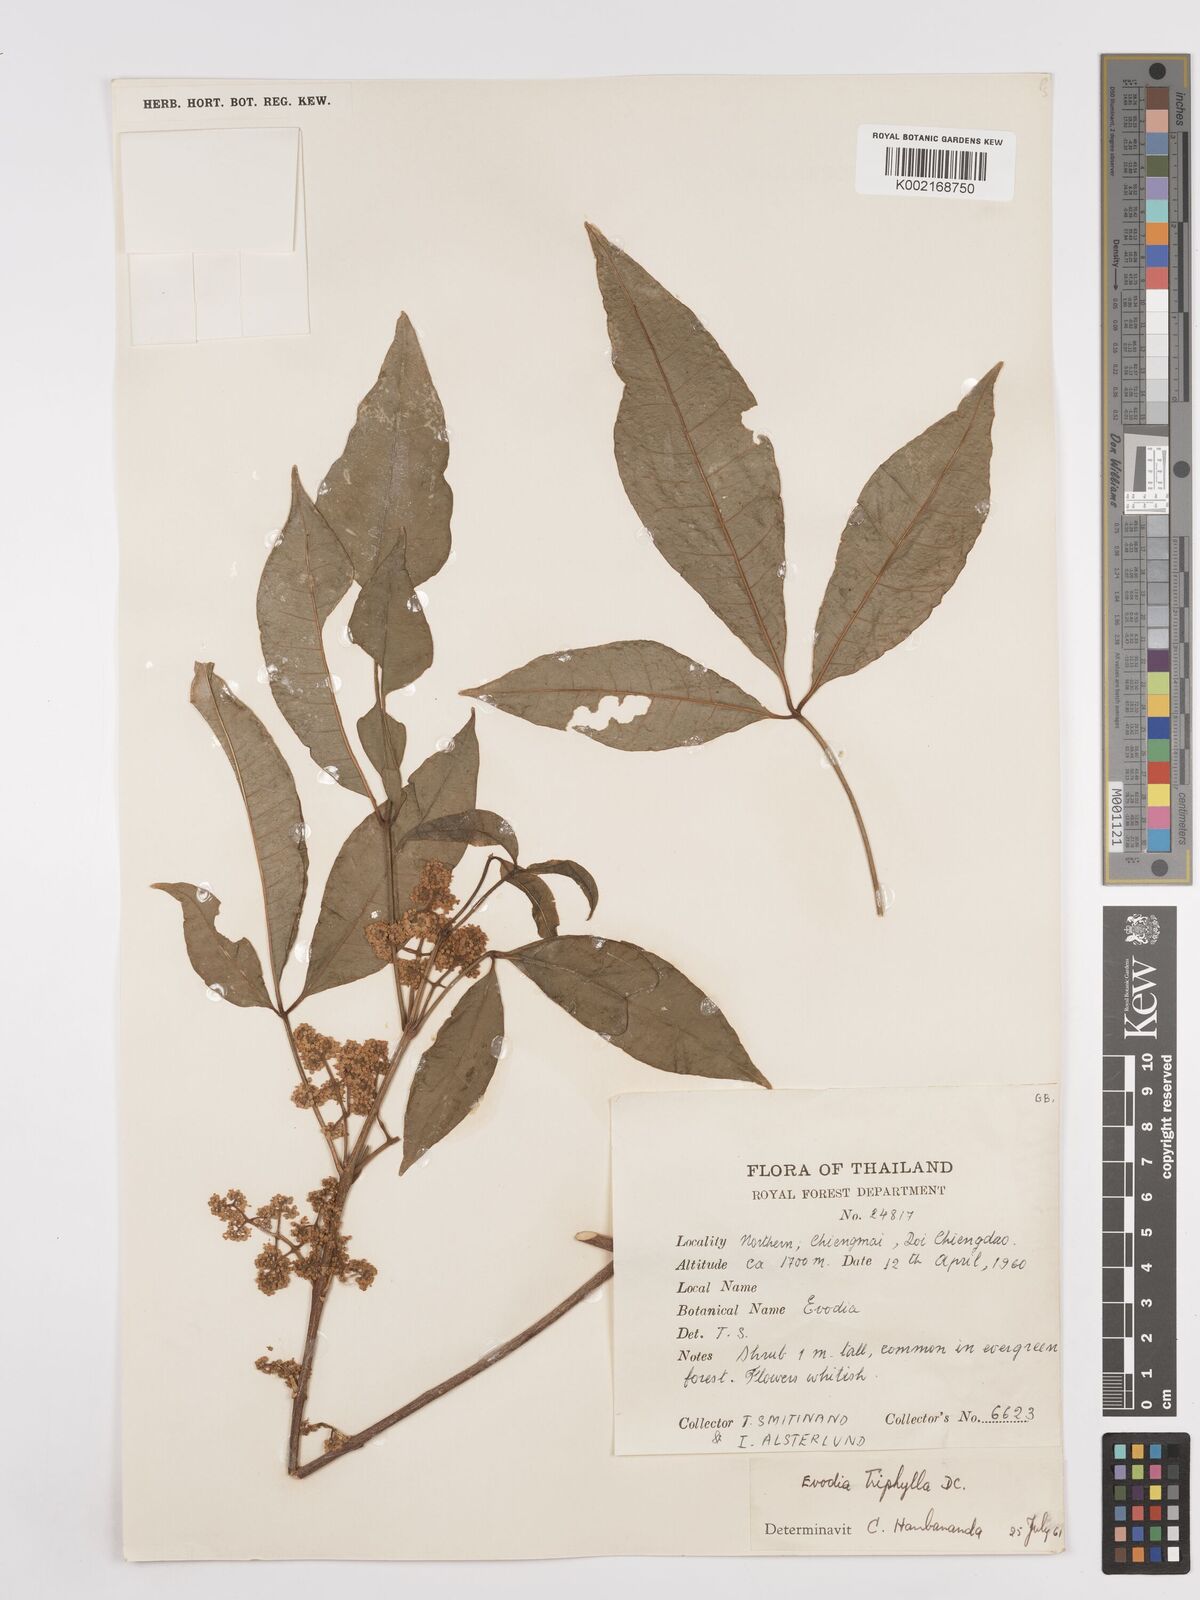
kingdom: Plantae
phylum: Tracheophyta
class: Magnoliopsida
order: Sapindales
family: Rutaceae
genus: Euodia
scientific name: Euodia
